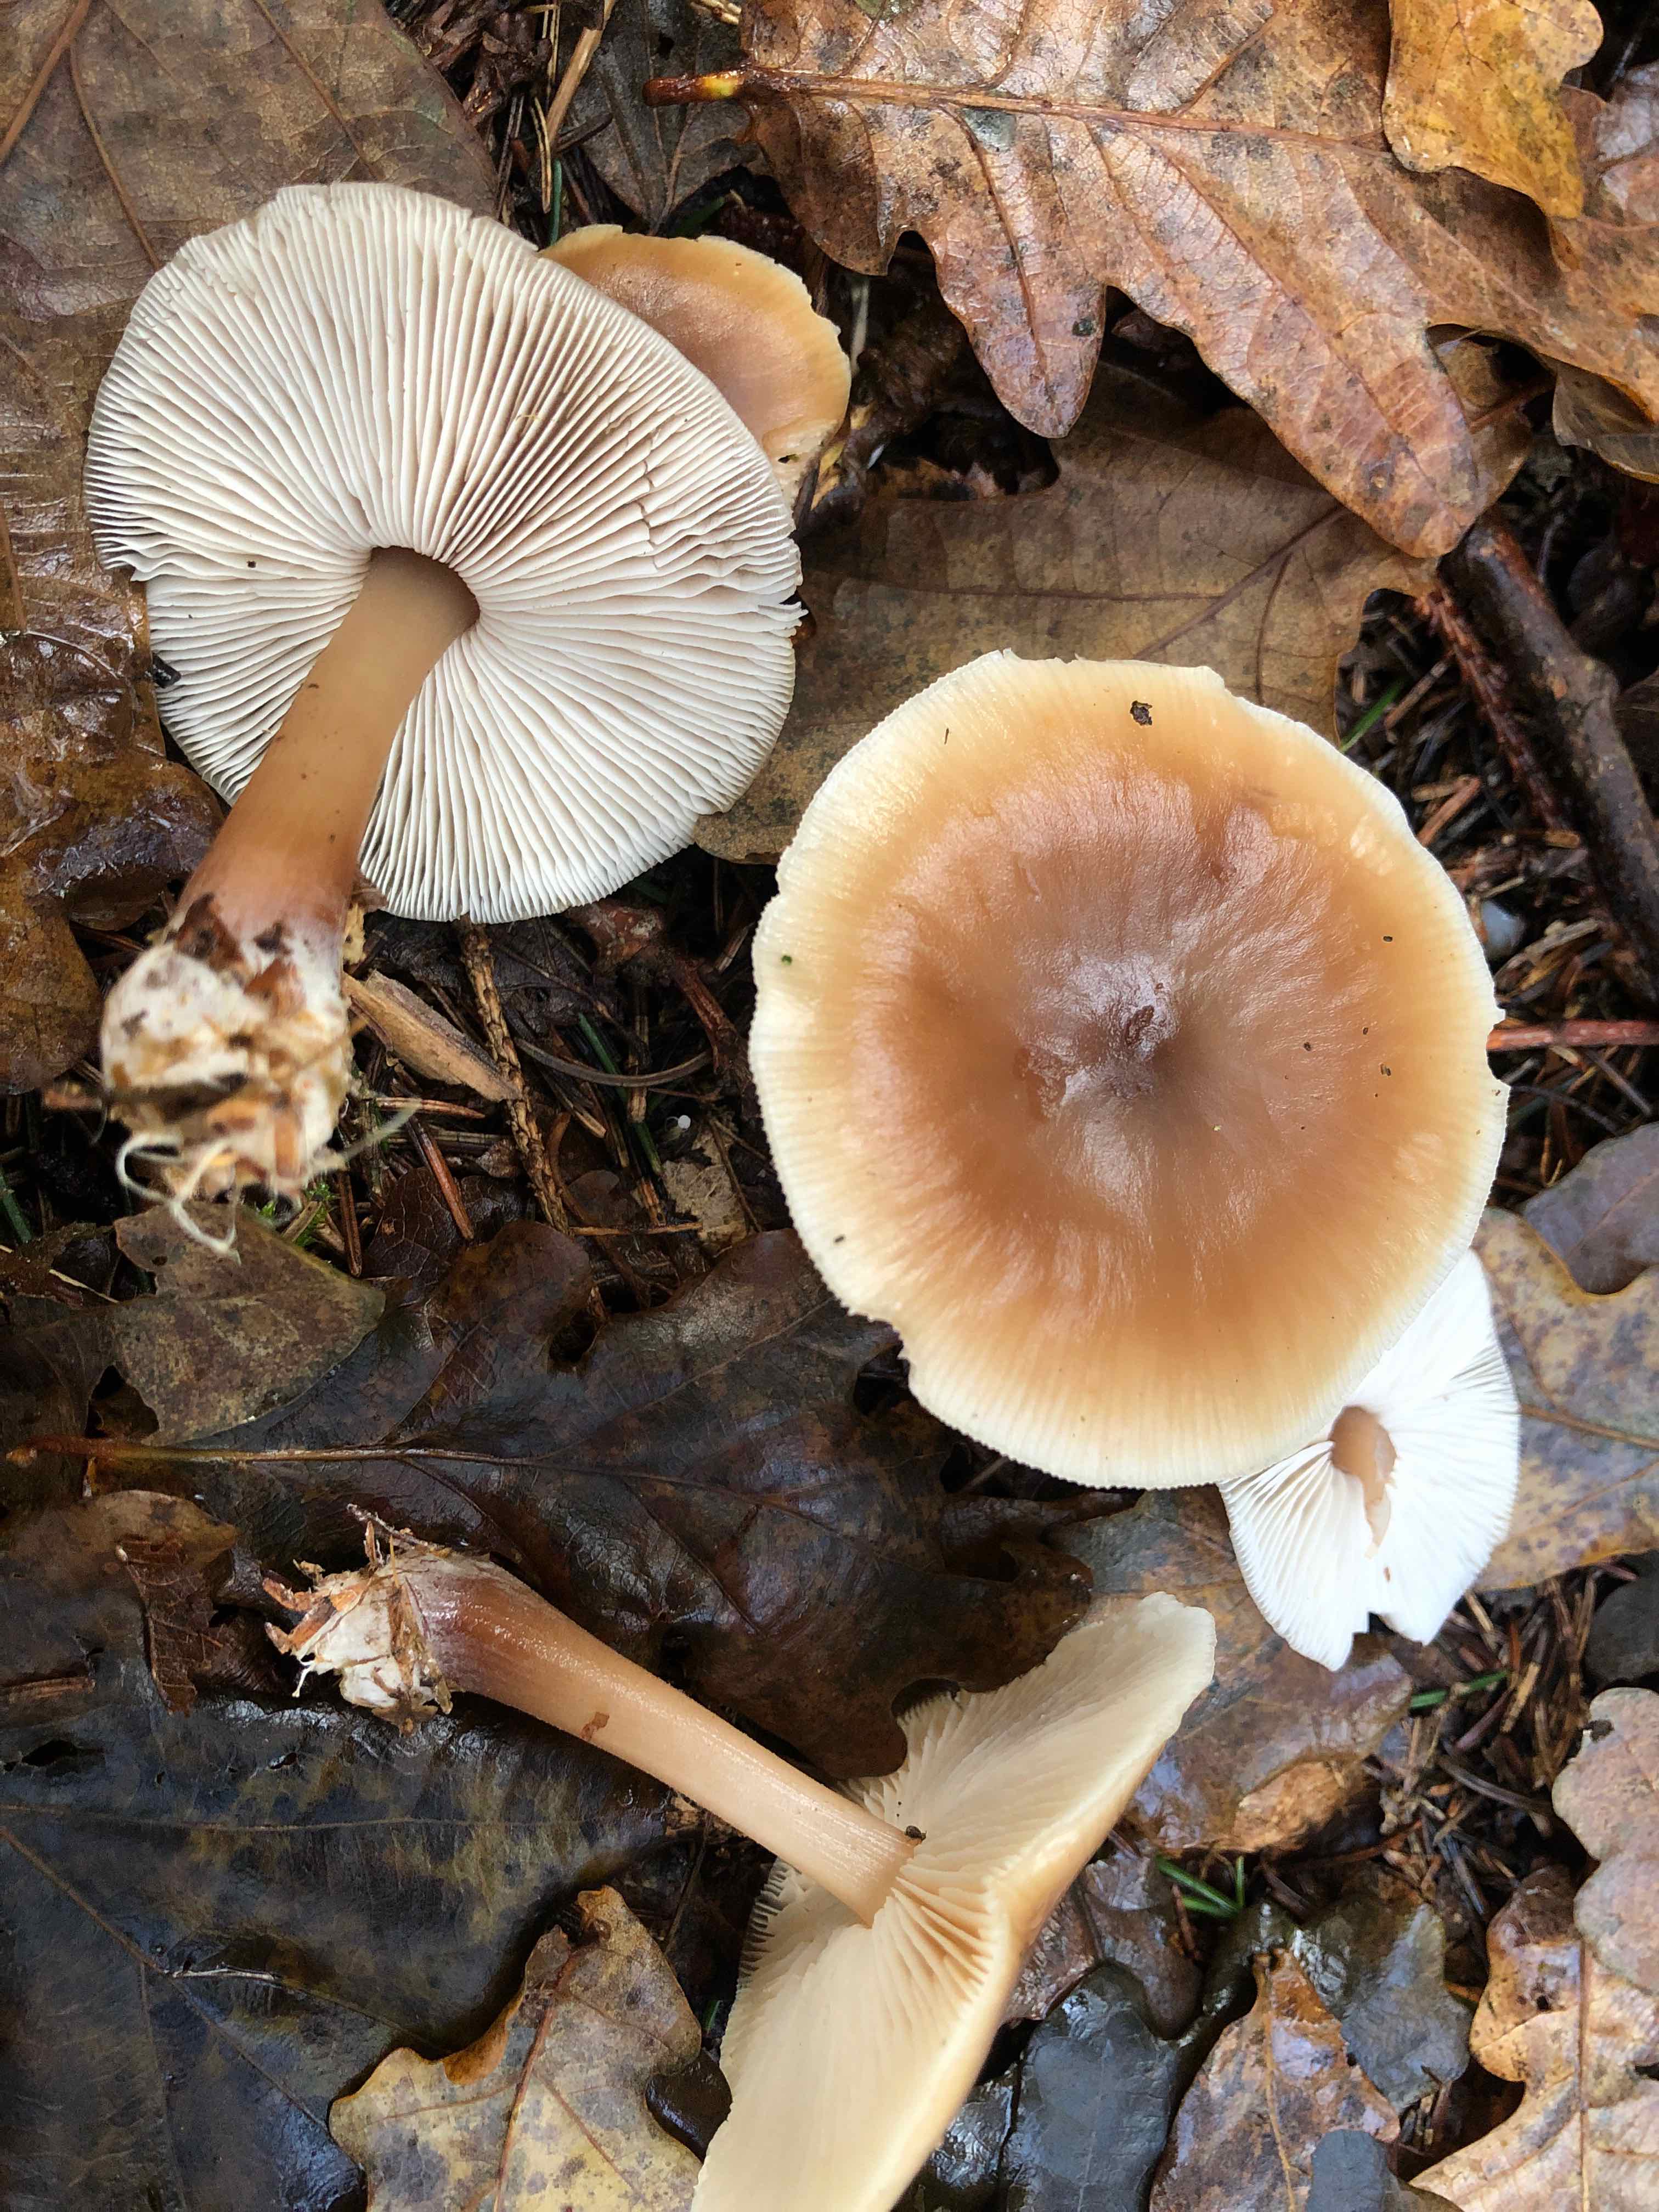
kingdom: Fungi
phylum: Basidiomycota
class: Agaricomycetes
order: Agaricales
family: Omphalotaceae
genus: Rhodocollybia
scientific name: Rhodocollybia asema
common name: horngrå fladhat
